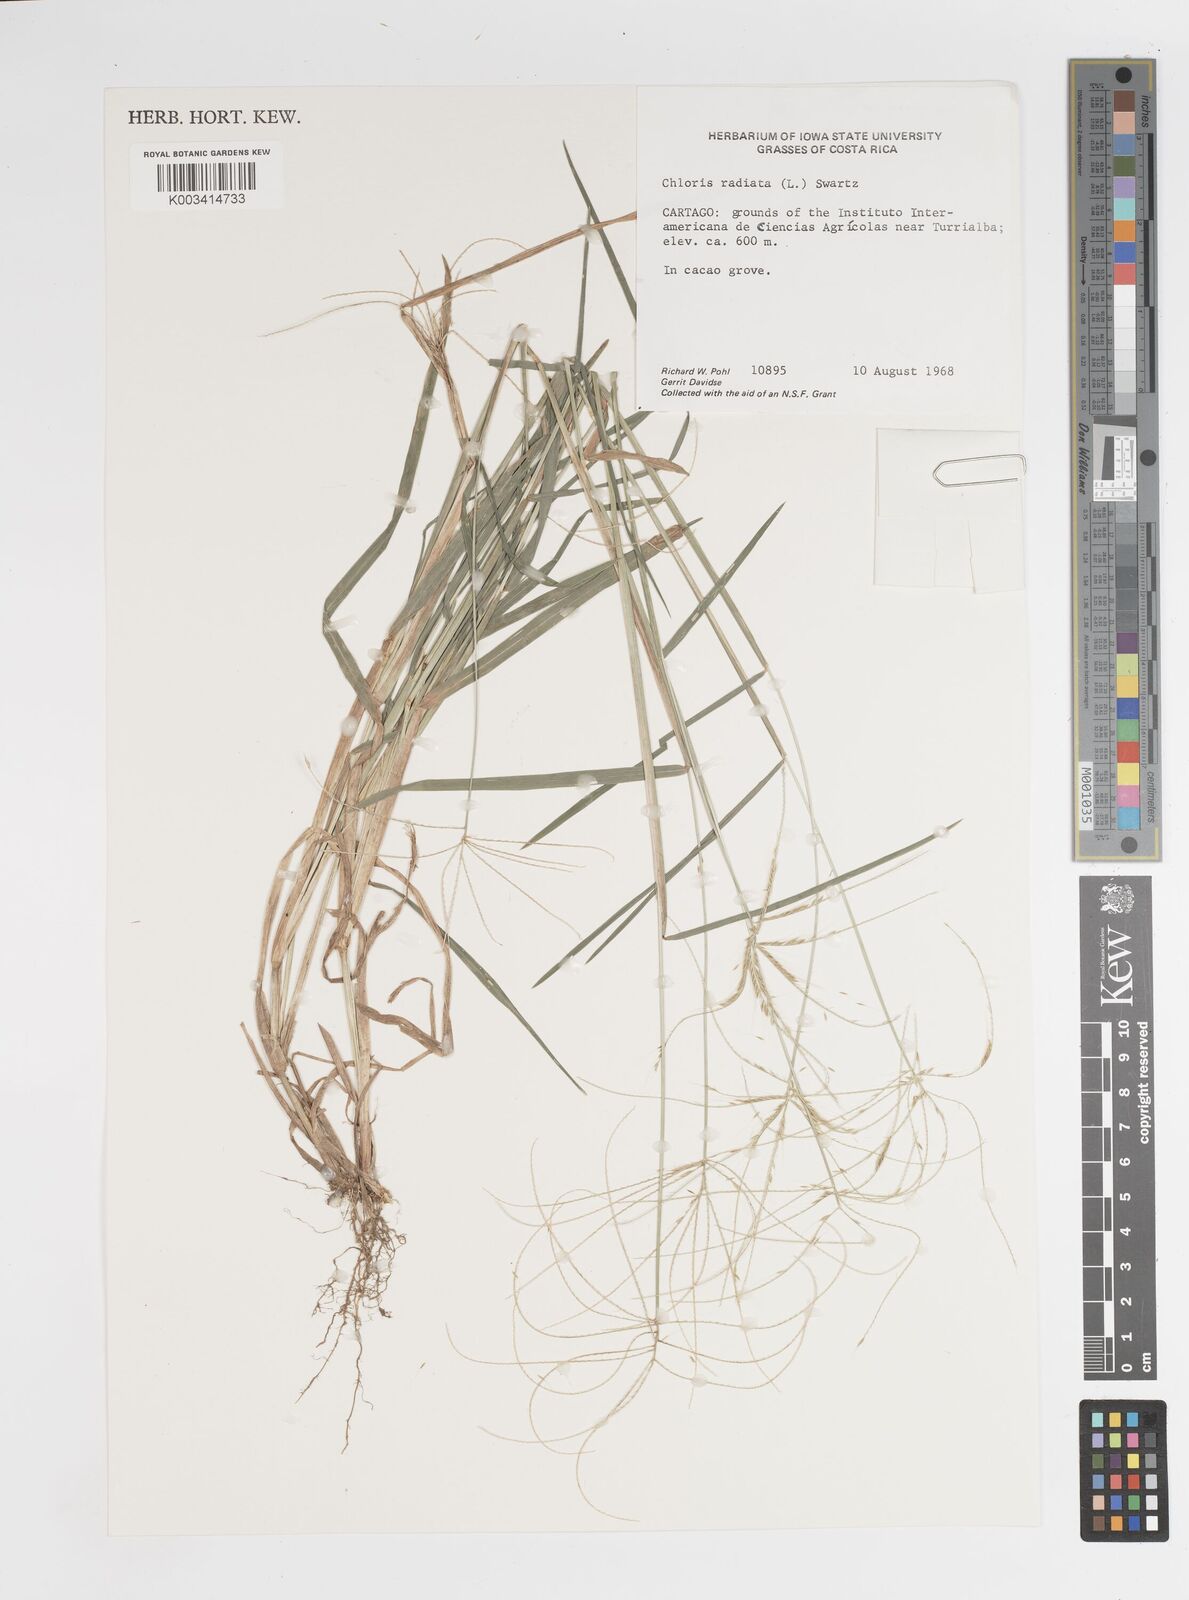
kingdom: Plantae
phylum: Tracheophyta
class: Liliopsida
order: Poales
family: Poaceae
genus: Chloris
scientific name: Chloris radiata
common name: Radiate fingergrass
